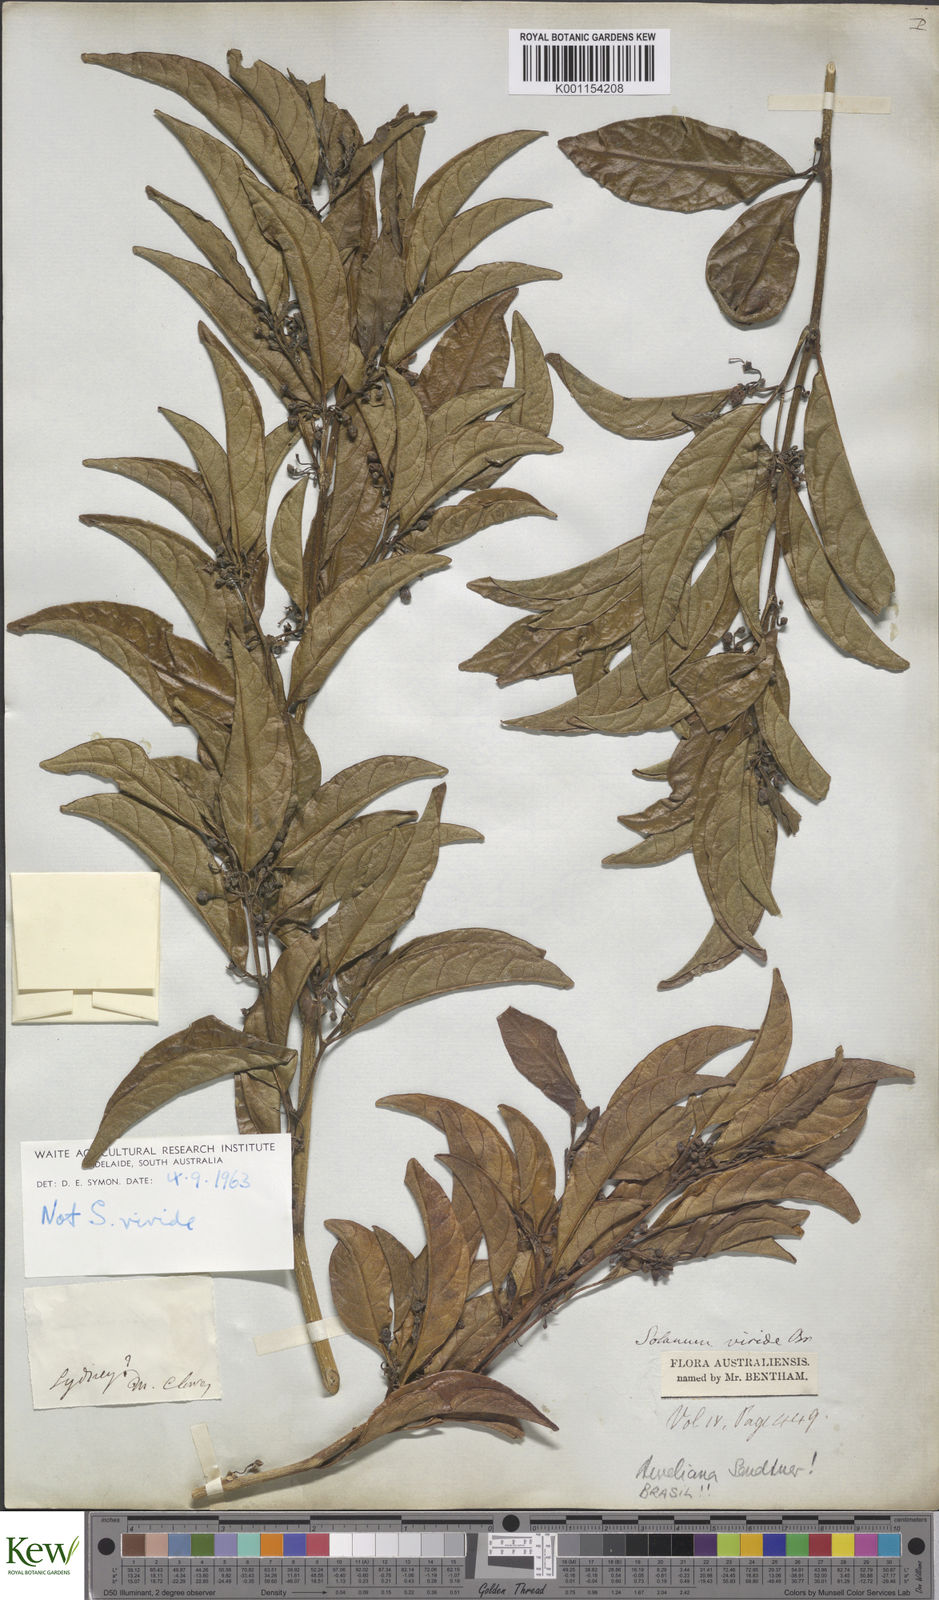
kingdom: Plantae
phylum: Tracheophyta
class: Magnoliopsida
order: Solanales
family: Solanaceae
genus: Solanum
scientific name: Solanum viridifolium
